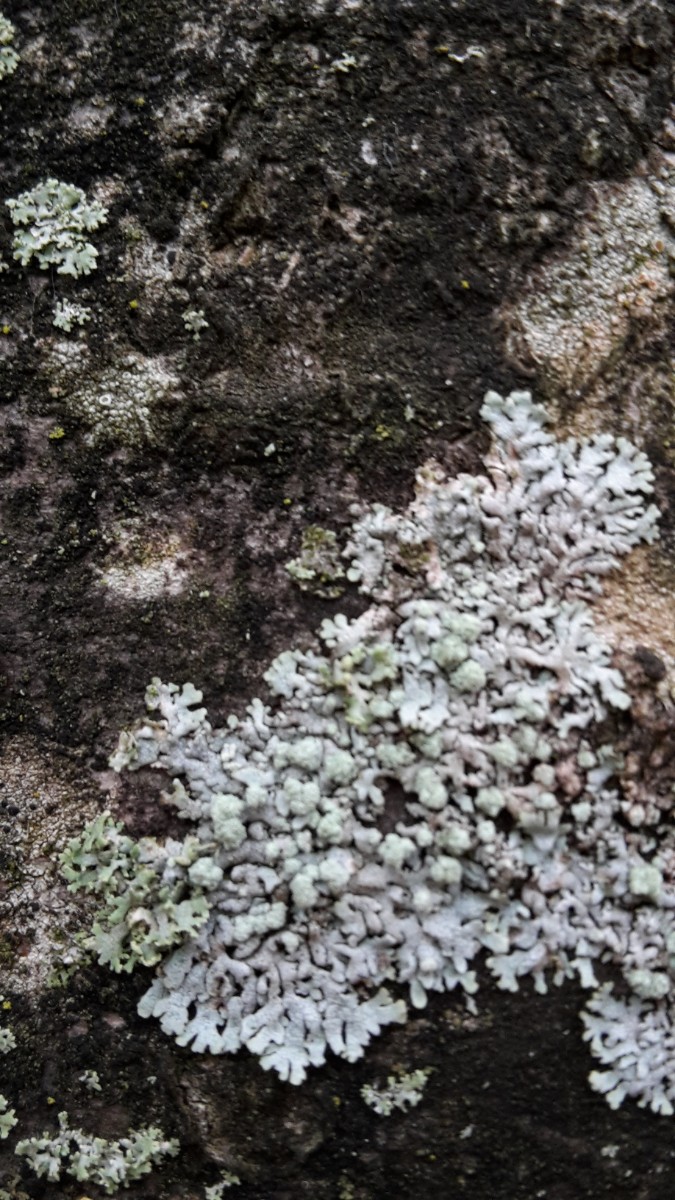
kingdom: Fungi
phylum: Ascomycota
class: Lecanoromycetes
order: Caliciales
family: Physciaceae
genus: Physcia
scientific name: Physcia caesia
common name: blågrå rosetlav
